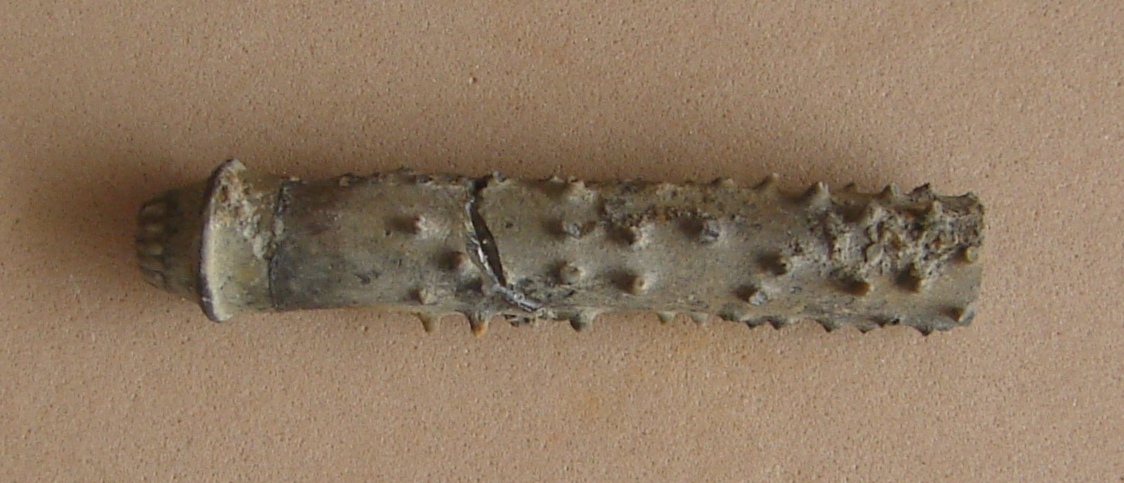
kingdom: Animalia
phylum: Echinodermata
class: Echinoidea
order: Cidaroida
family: Rhabdocidaridae
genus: Rhabdocidaris
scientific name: Rhabdocidaris ehmanni
